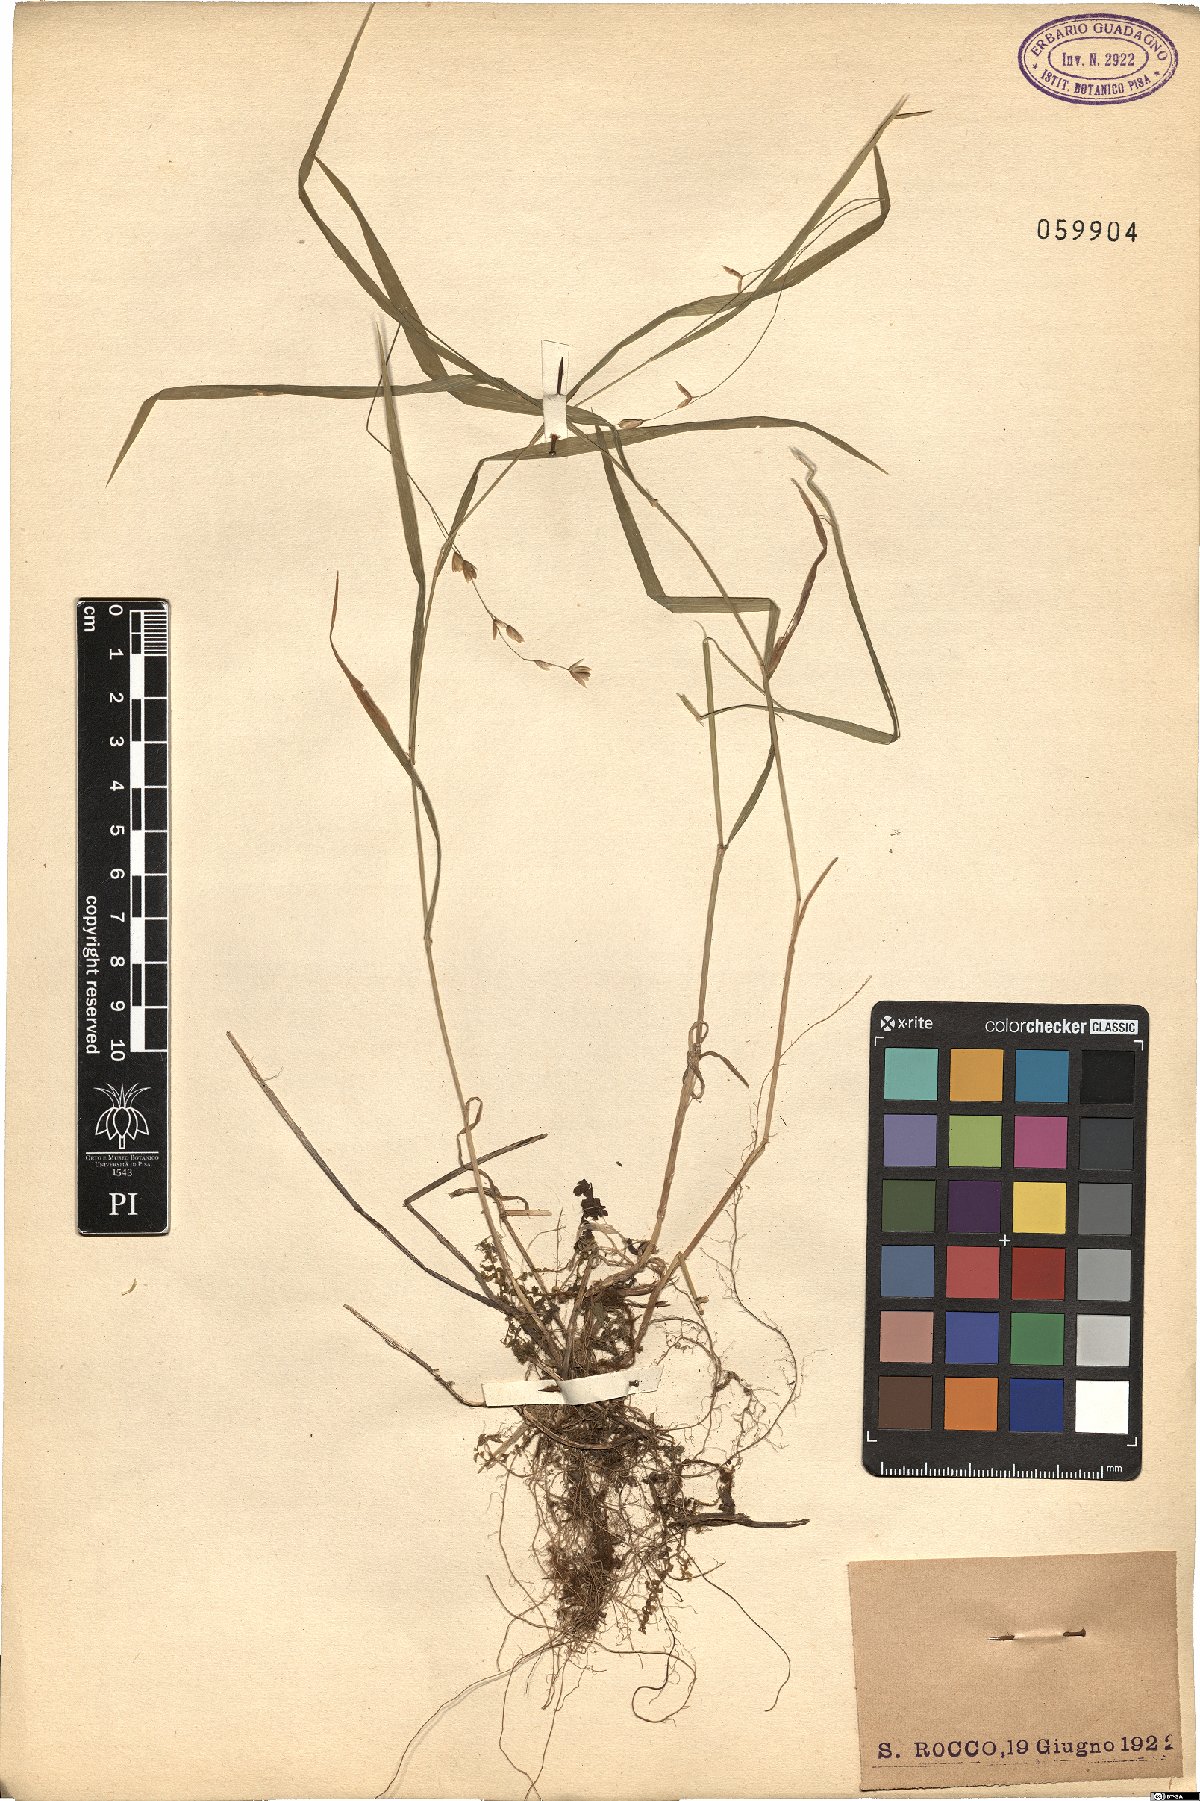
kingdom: Plantae
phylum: Tracheophyta
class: Liliopsida
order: Poales
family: Poaceae
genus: Melica
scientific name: Melica uniflora
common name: Wood melick
